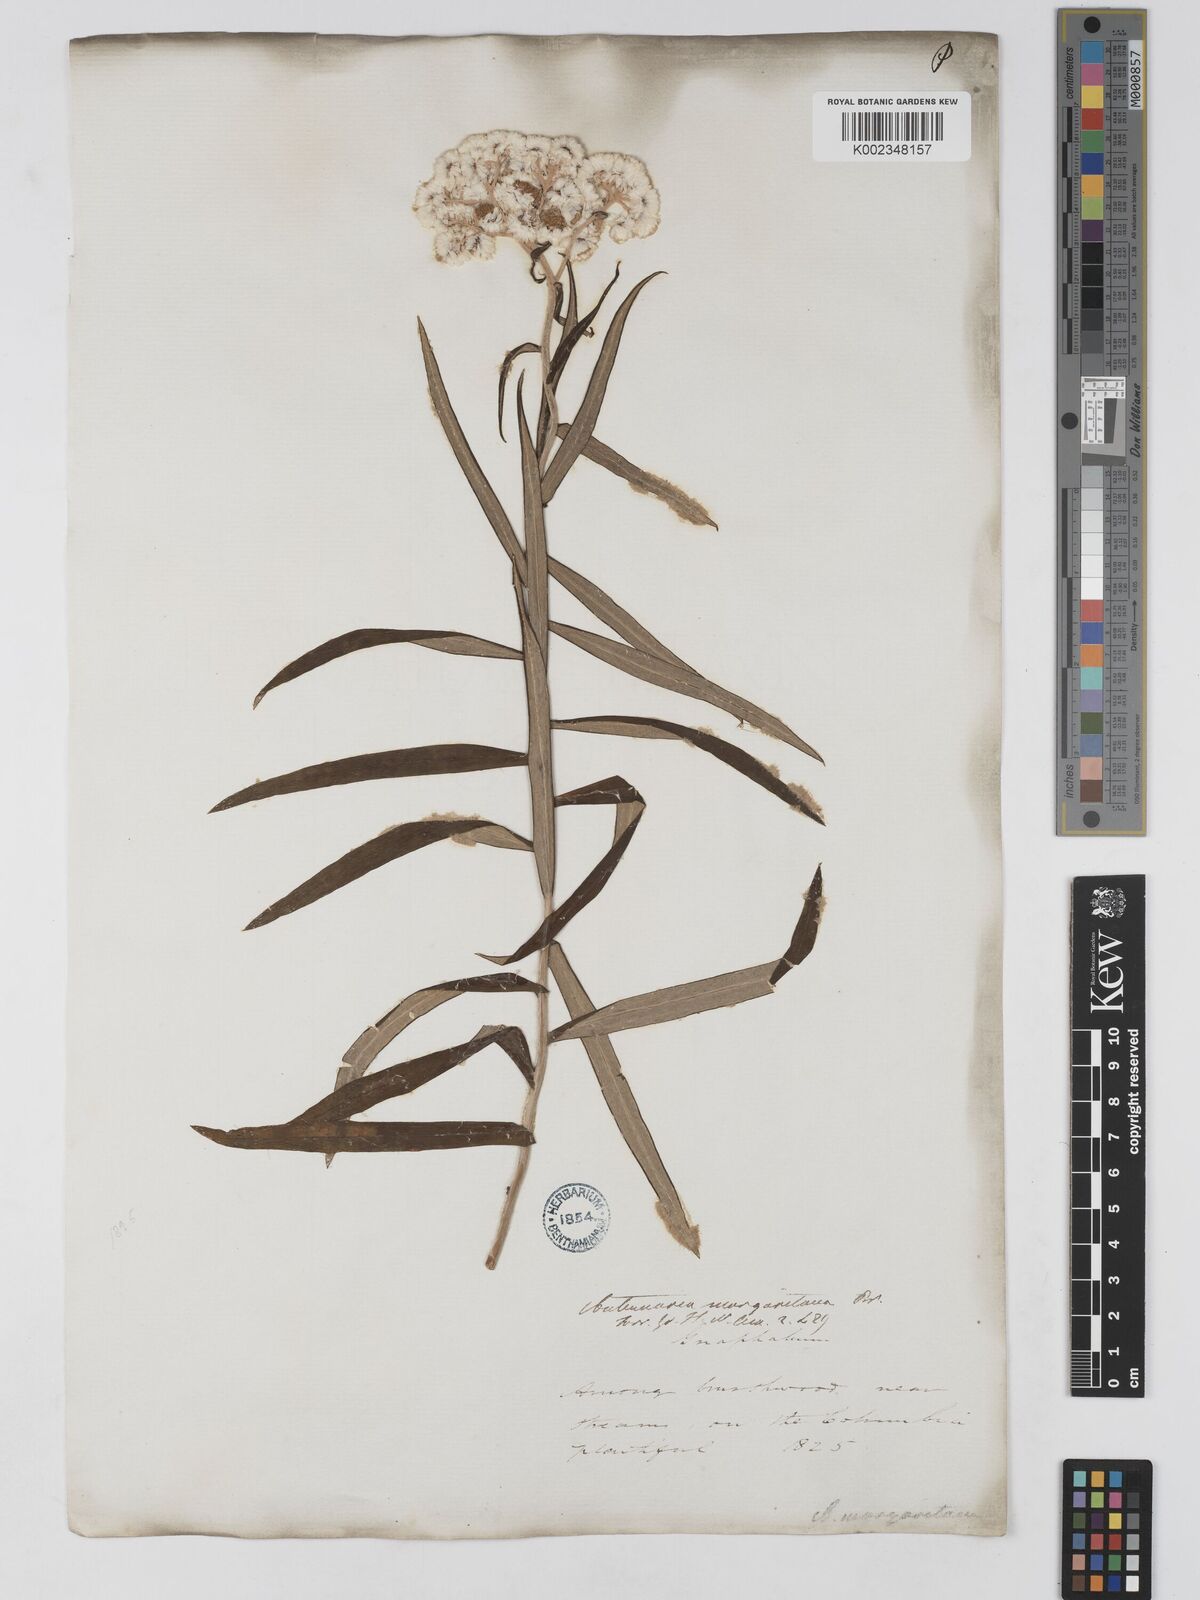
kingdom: Plantae
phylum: Tracheophyta
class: Magnoliopsida
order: Asterales
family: Asteraceae
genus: Anaphalis
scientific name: Anaphalis margaritacea
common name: Pearly everlasting
